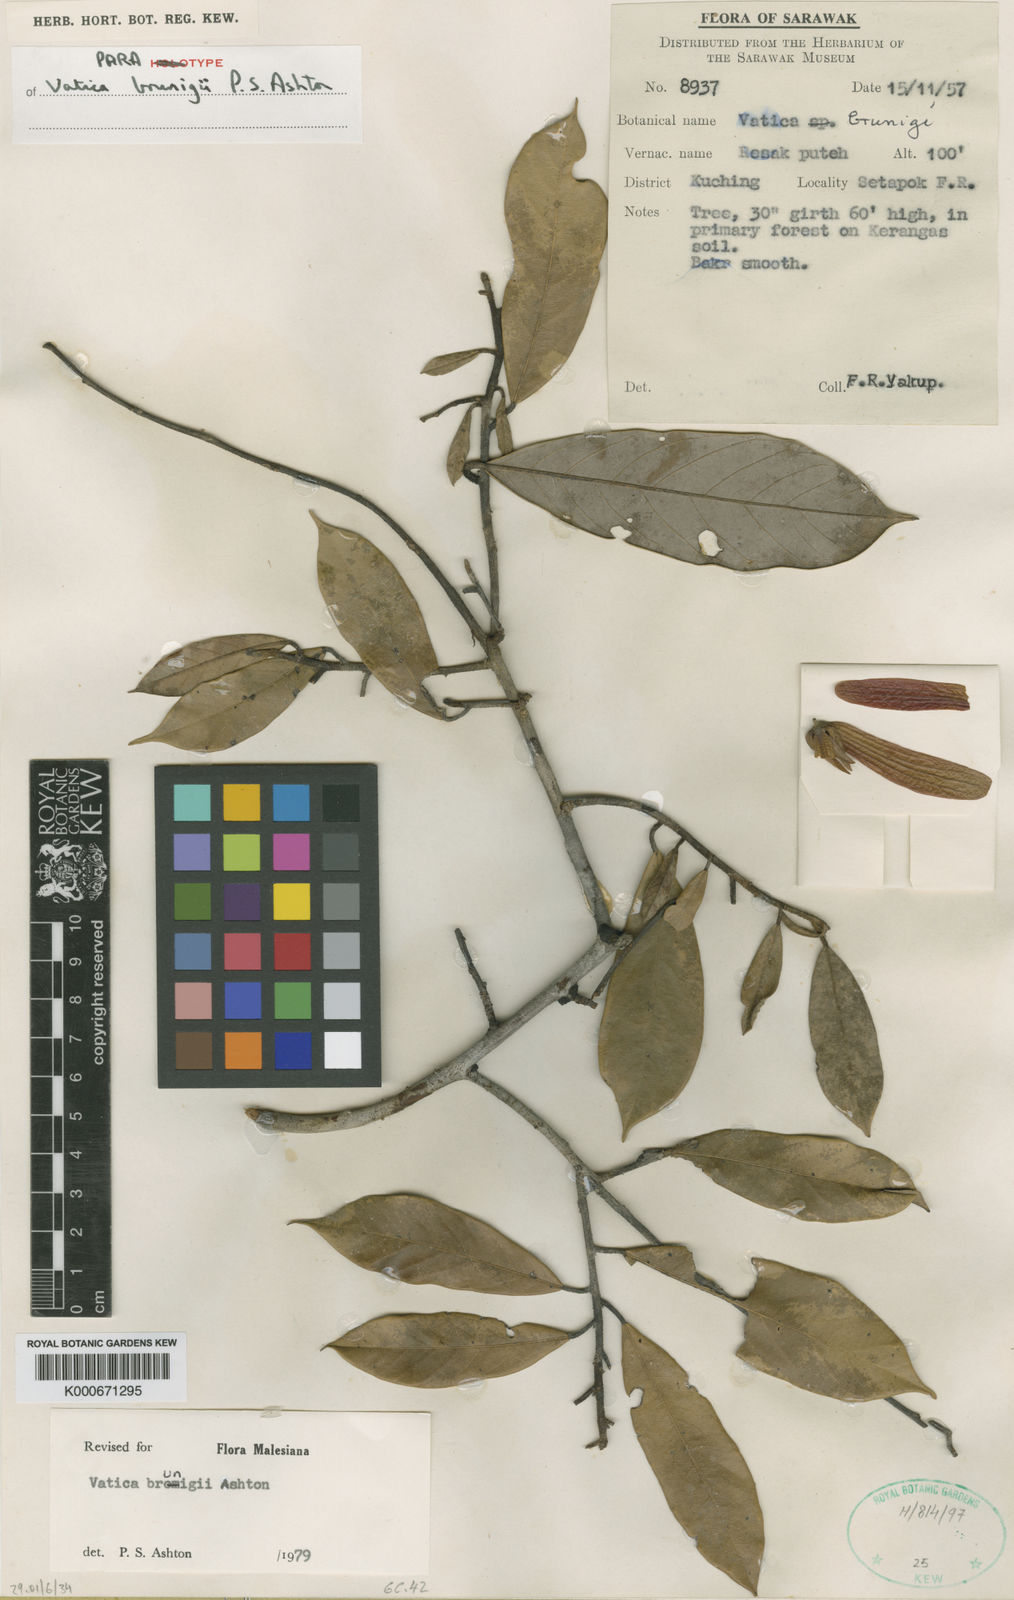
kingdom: Plantae
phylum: Tracheophyta
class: Magnoliopsida
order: Malvales
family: Dipterocarpaceae
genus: Vatica
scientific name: Vatica brunigii
